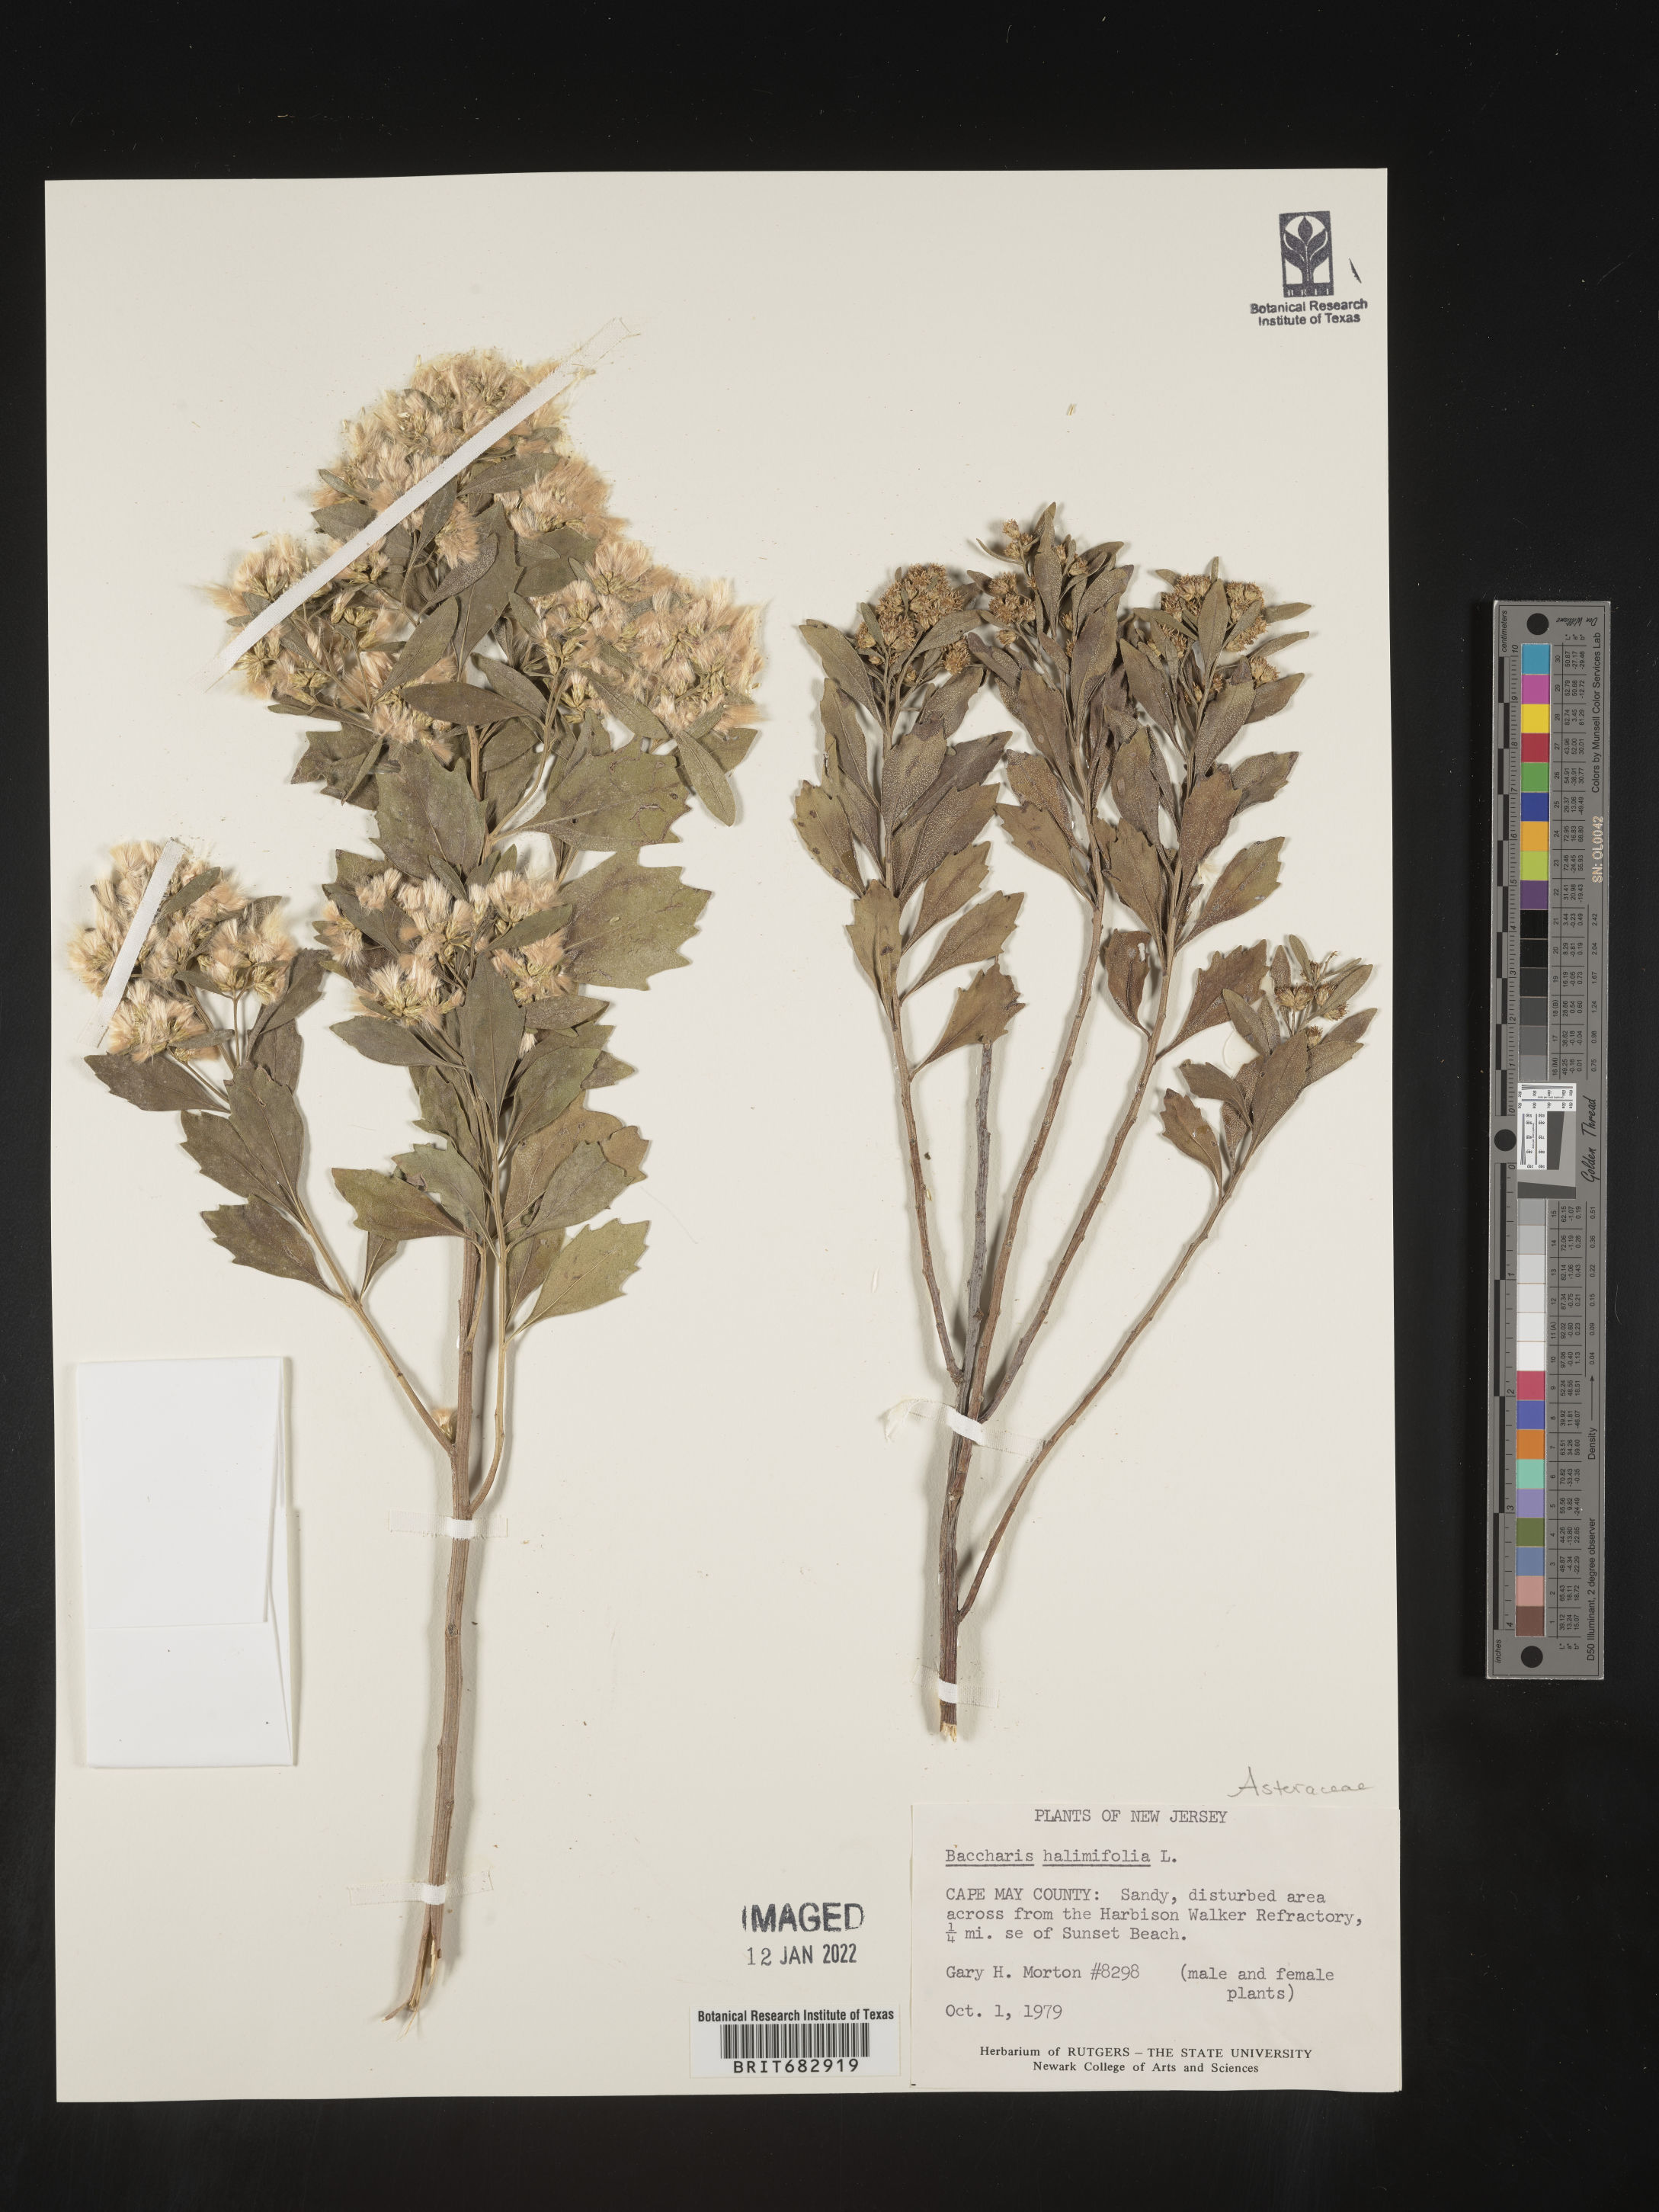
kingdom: Plantae
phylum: Tracheophyta
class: Magnoliopsida
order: Asterales
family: Asteraceae
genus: Nidorella
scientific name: Nidorella ivifolia
